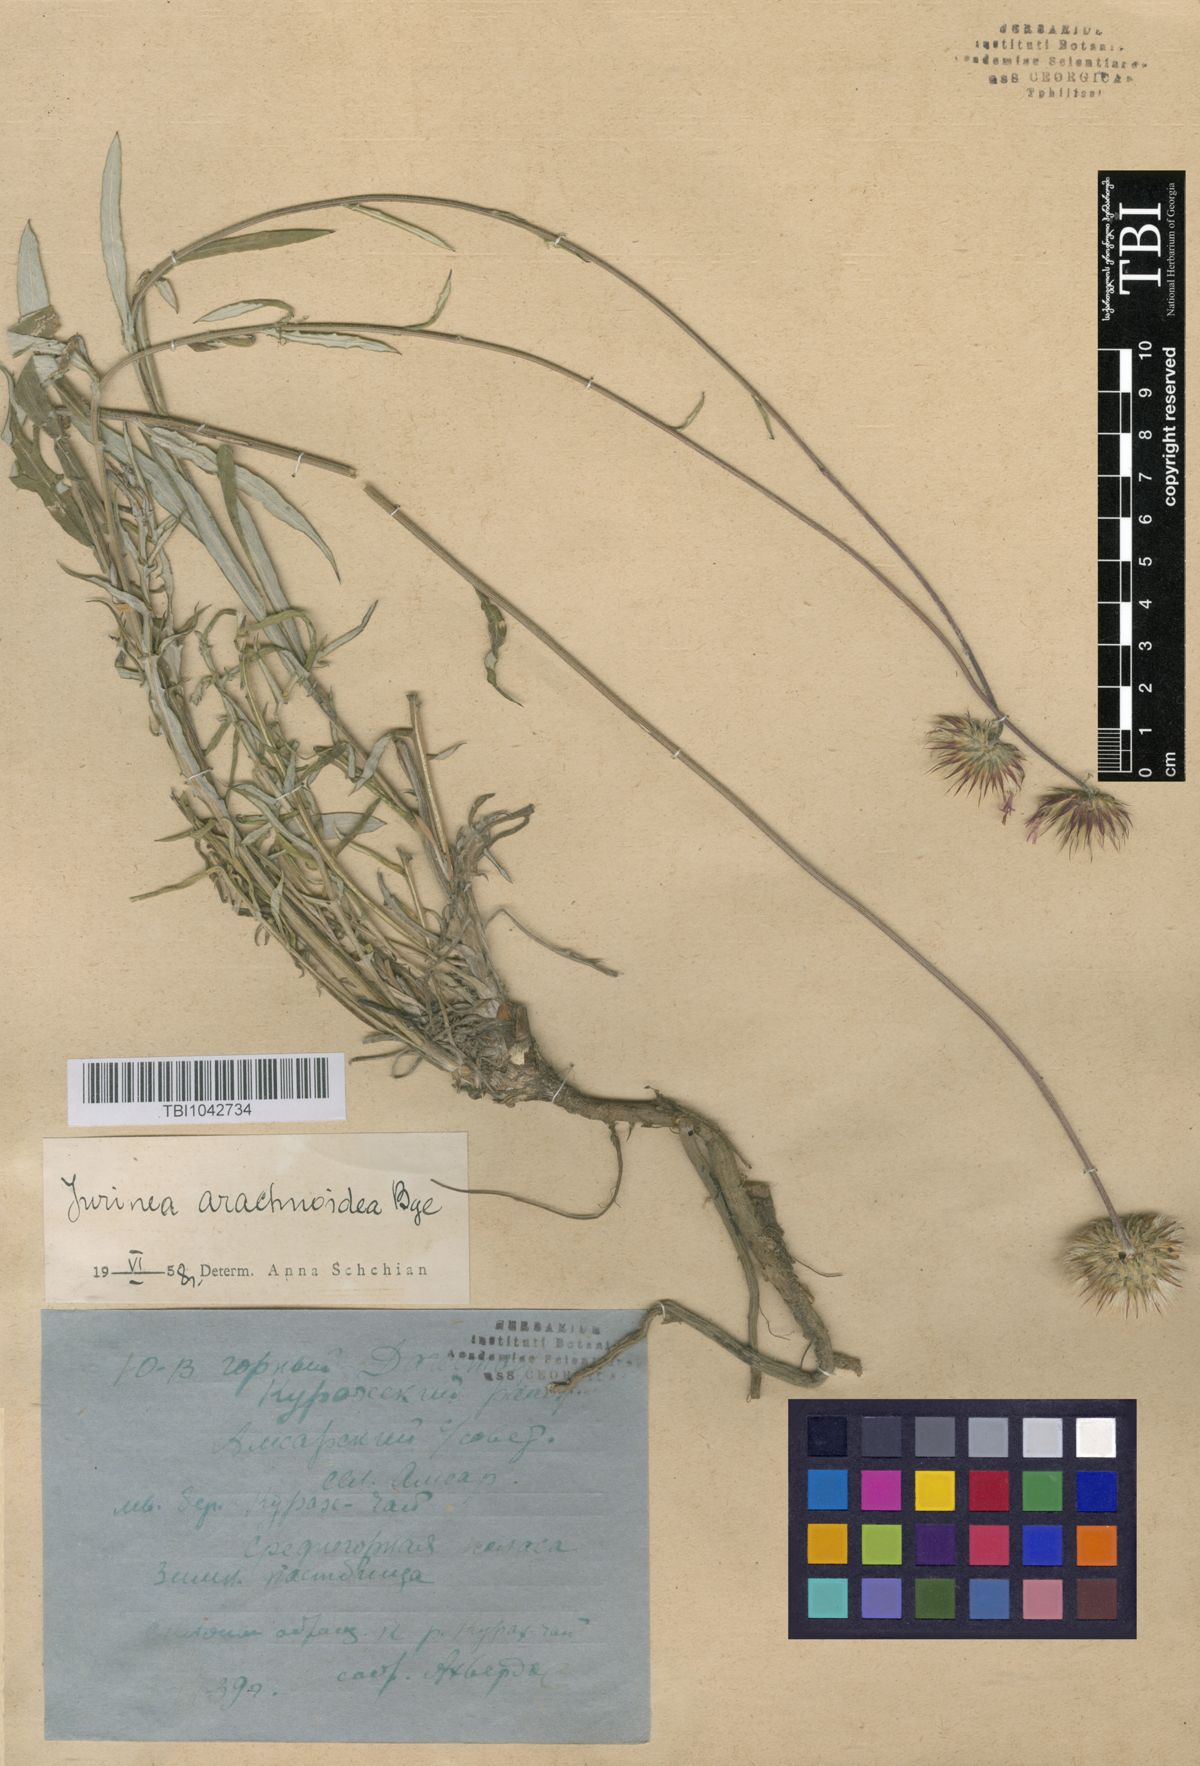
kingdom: Plantae
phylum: Tracheophyta
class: Magnoliopsida
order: Asterales
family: Asteraceae
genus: Jurinea
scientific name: Jurinea blanda
